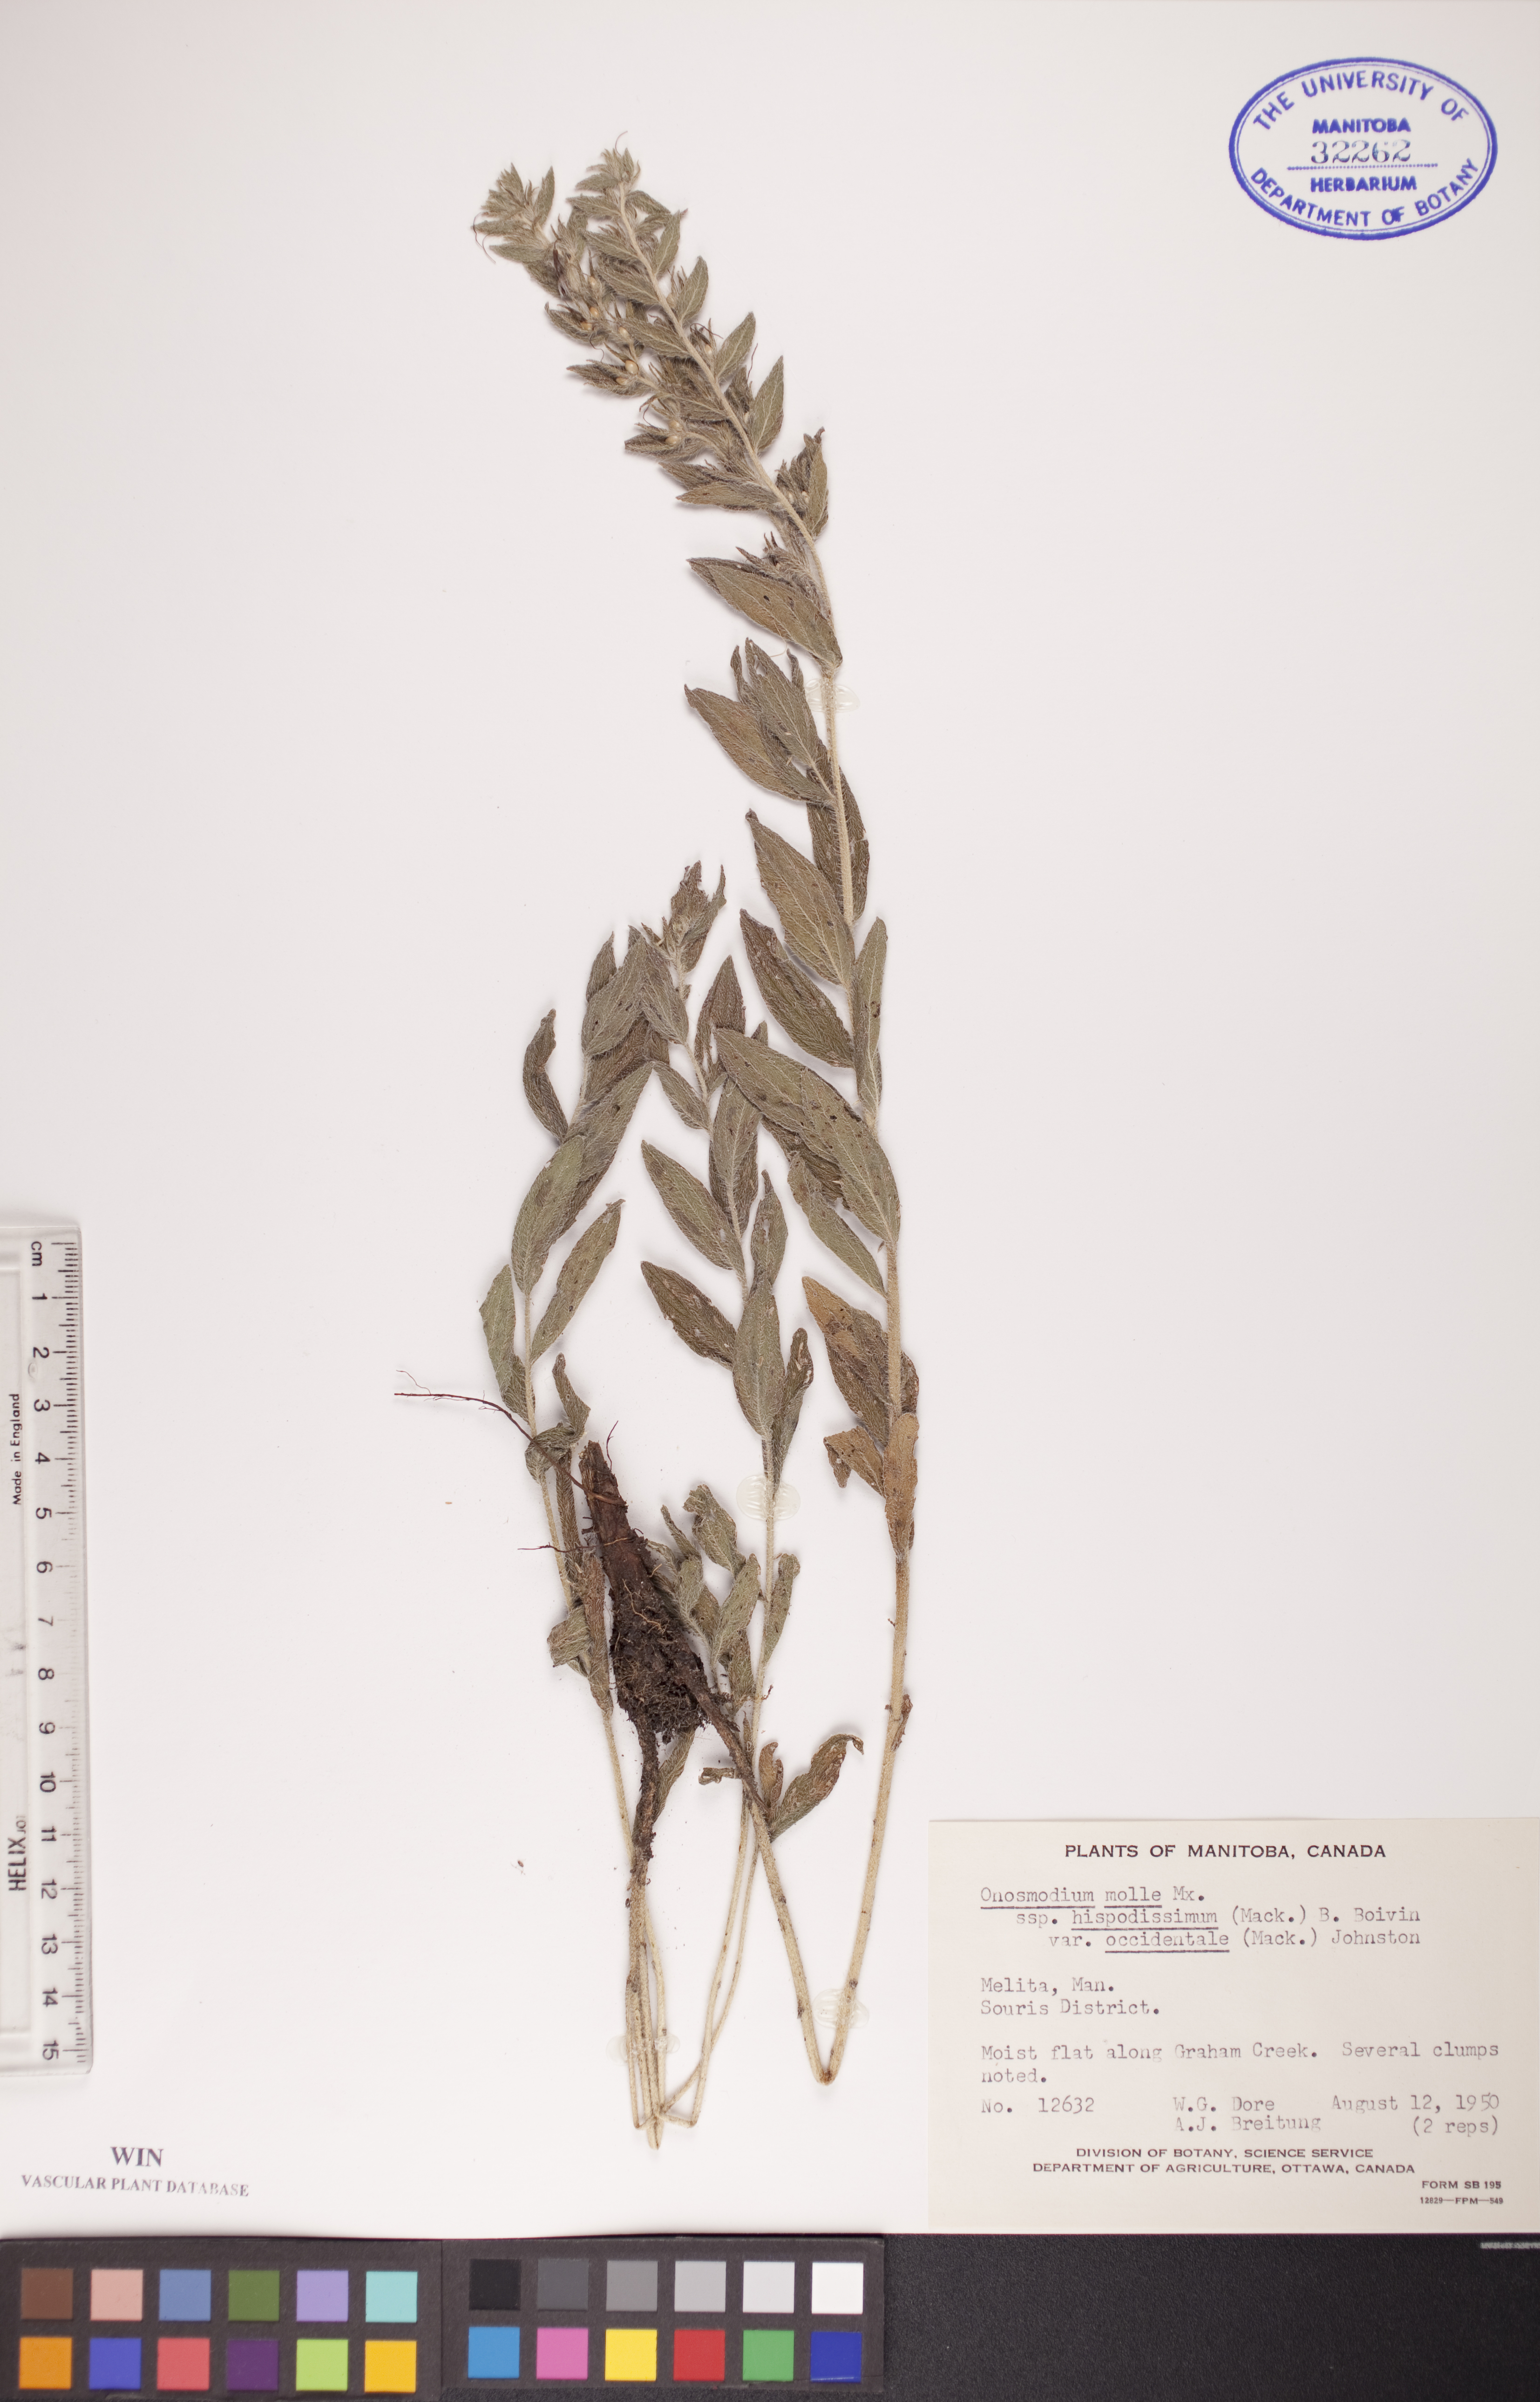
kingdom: Plantae
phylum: Tracheophyta
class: Magnoliopsida
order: Boraginales
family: Boraginaceae
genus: Lithospermum
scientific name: Lithospermum occidentale
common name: Western false gromwell
